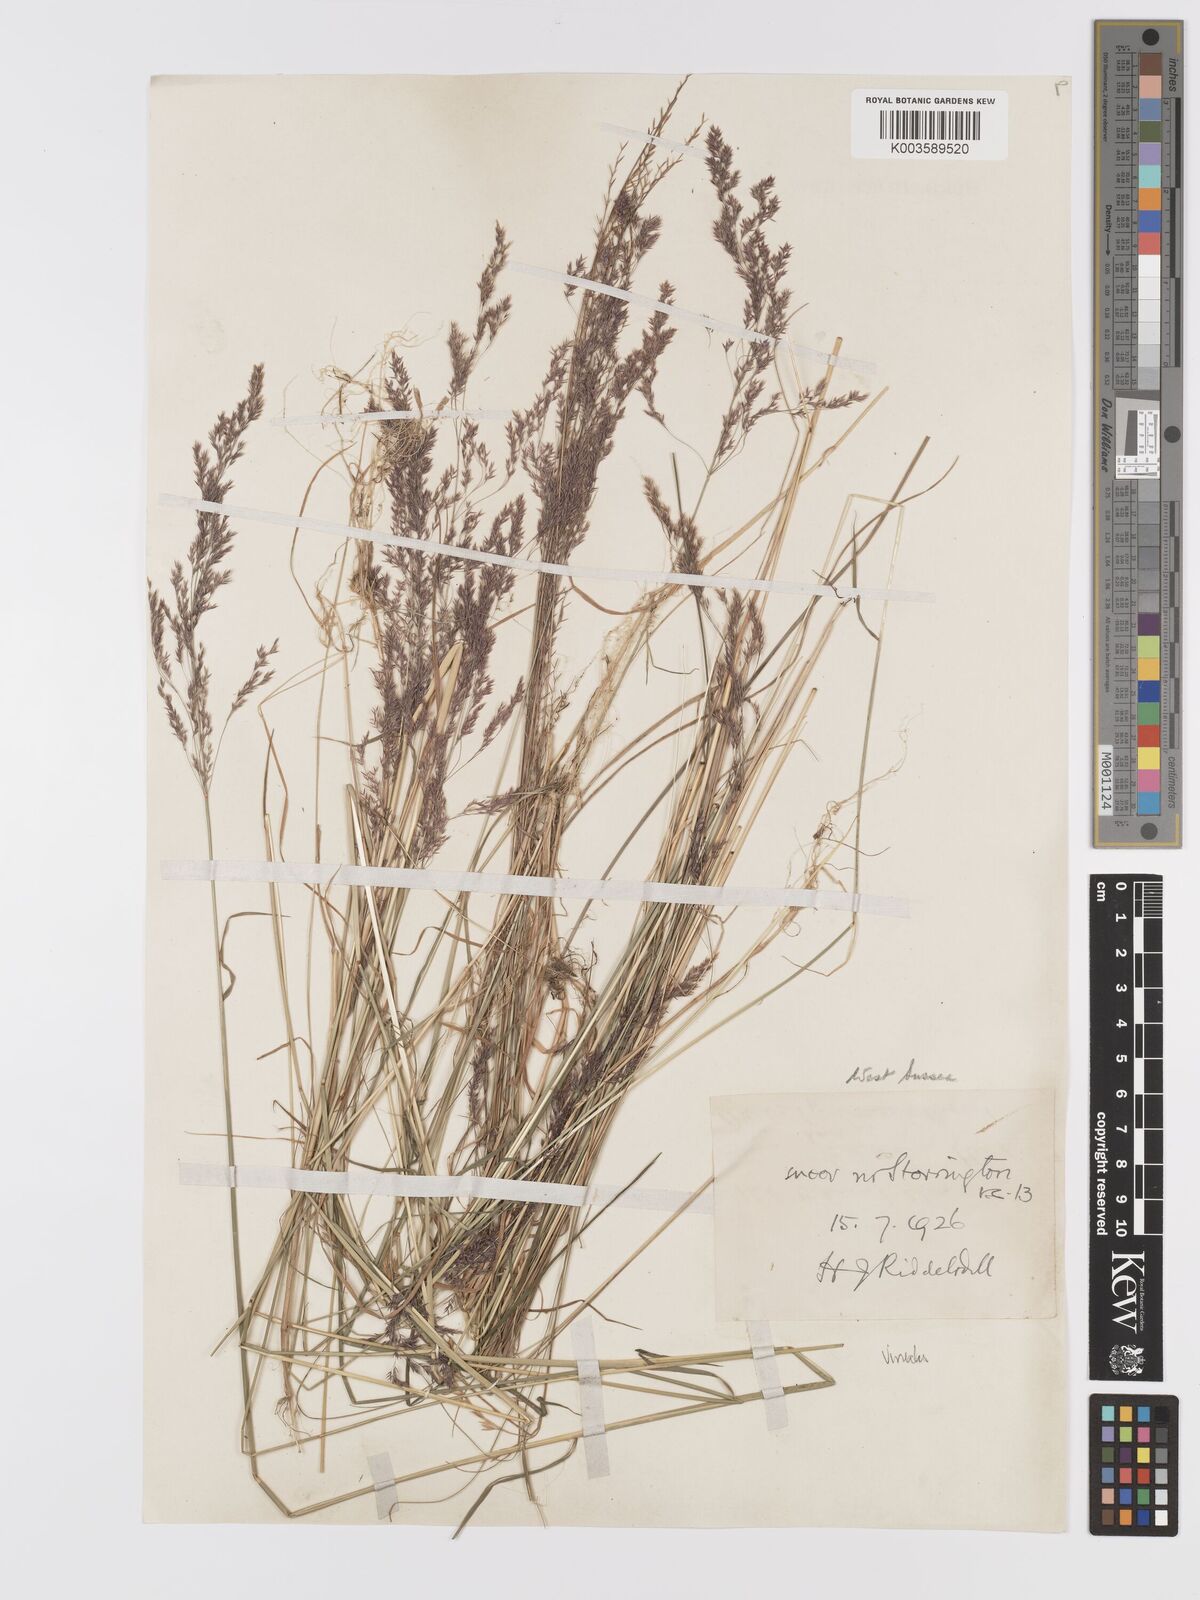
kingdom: Plantae
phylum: Tracheophyta
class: Liliopsida
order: Poales
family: Poaceae
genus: Agrostis
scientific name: Agrostis
